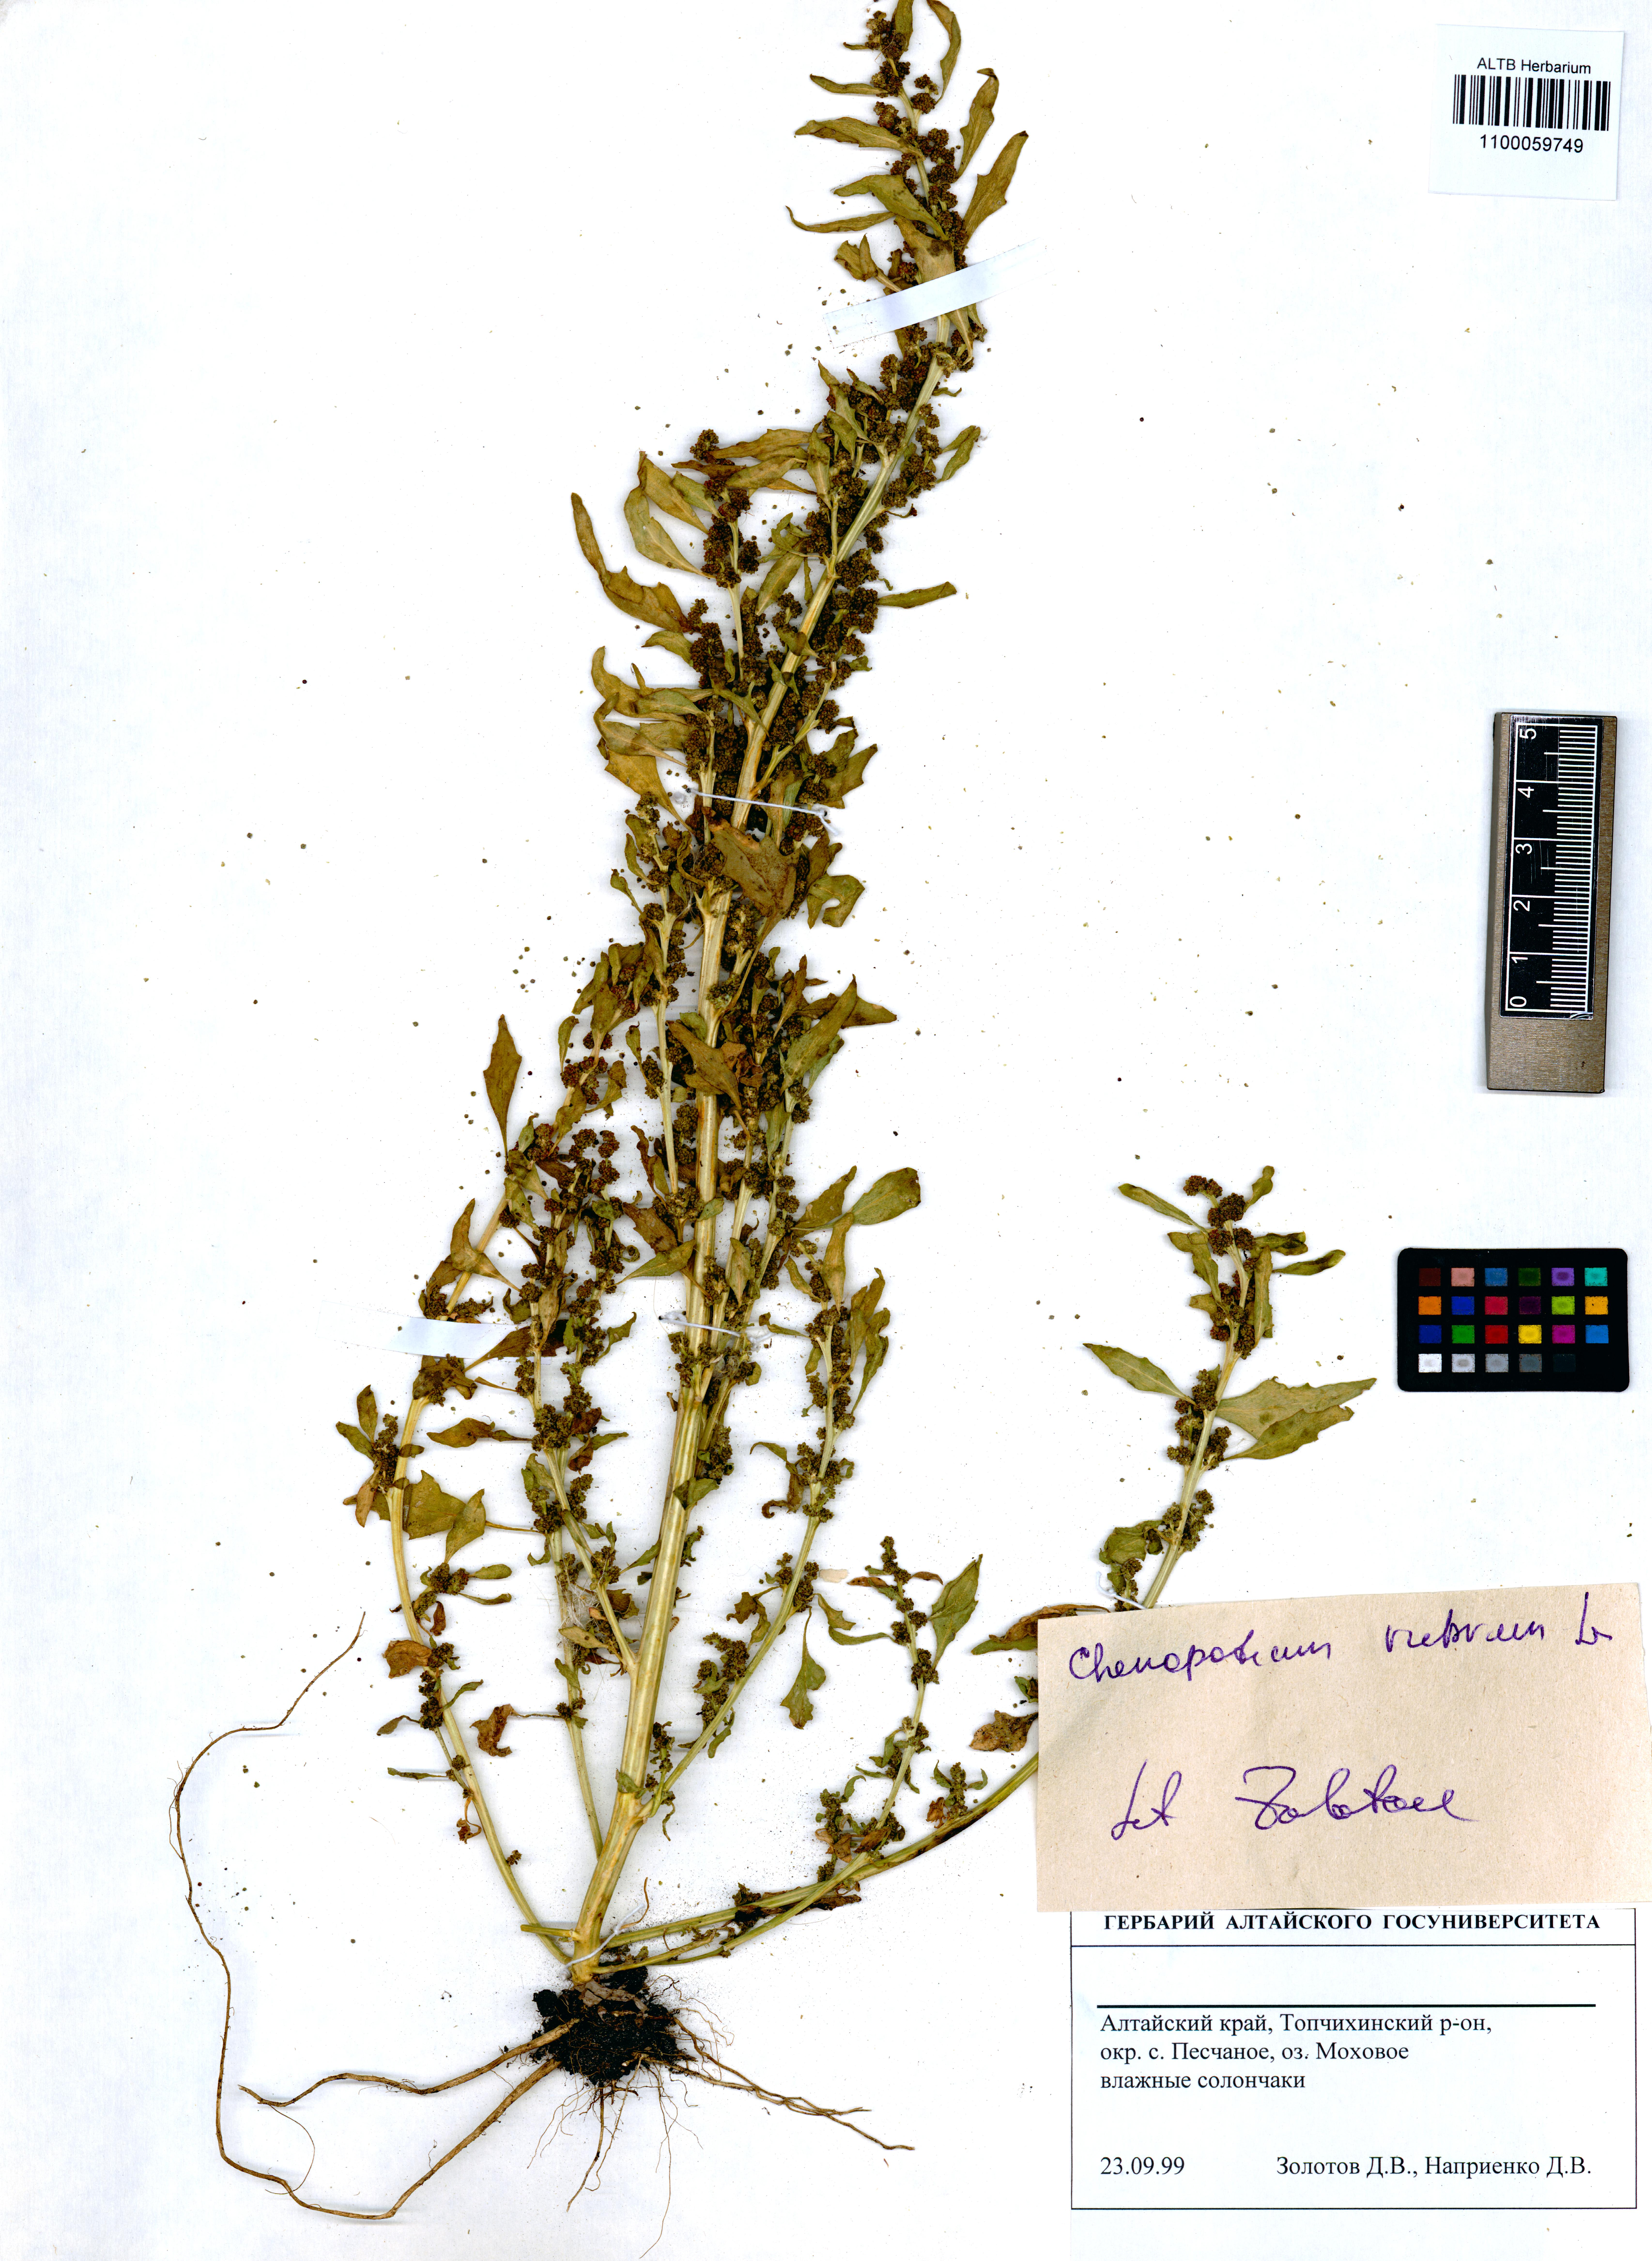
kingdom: Plantae
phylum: Tracheophyta
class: Magnoliopsida
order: Caryophyllales
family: Amaranthaceae
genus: Oxybasis
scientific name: Oxybasis rubra
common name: Red goosefoot
